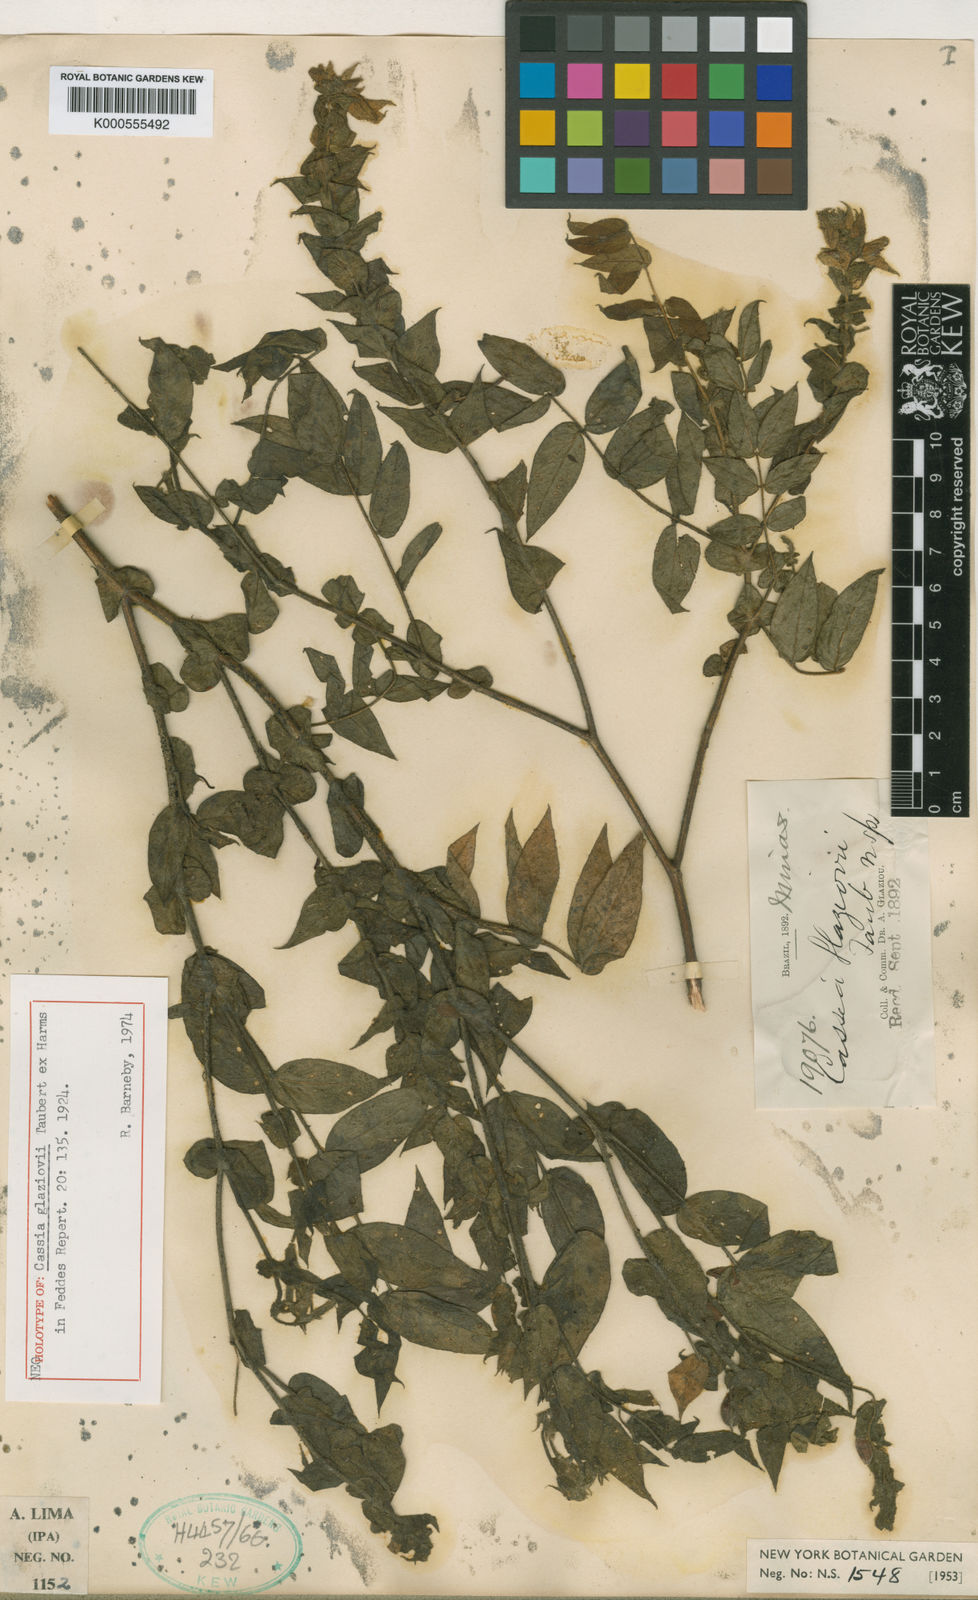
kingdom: Plantae
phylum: Tracheophyta
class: Magnoliopsida
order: Fabales
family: Fabaceae
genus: Chamaecrista
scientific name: Chamaecrista glaziovii
